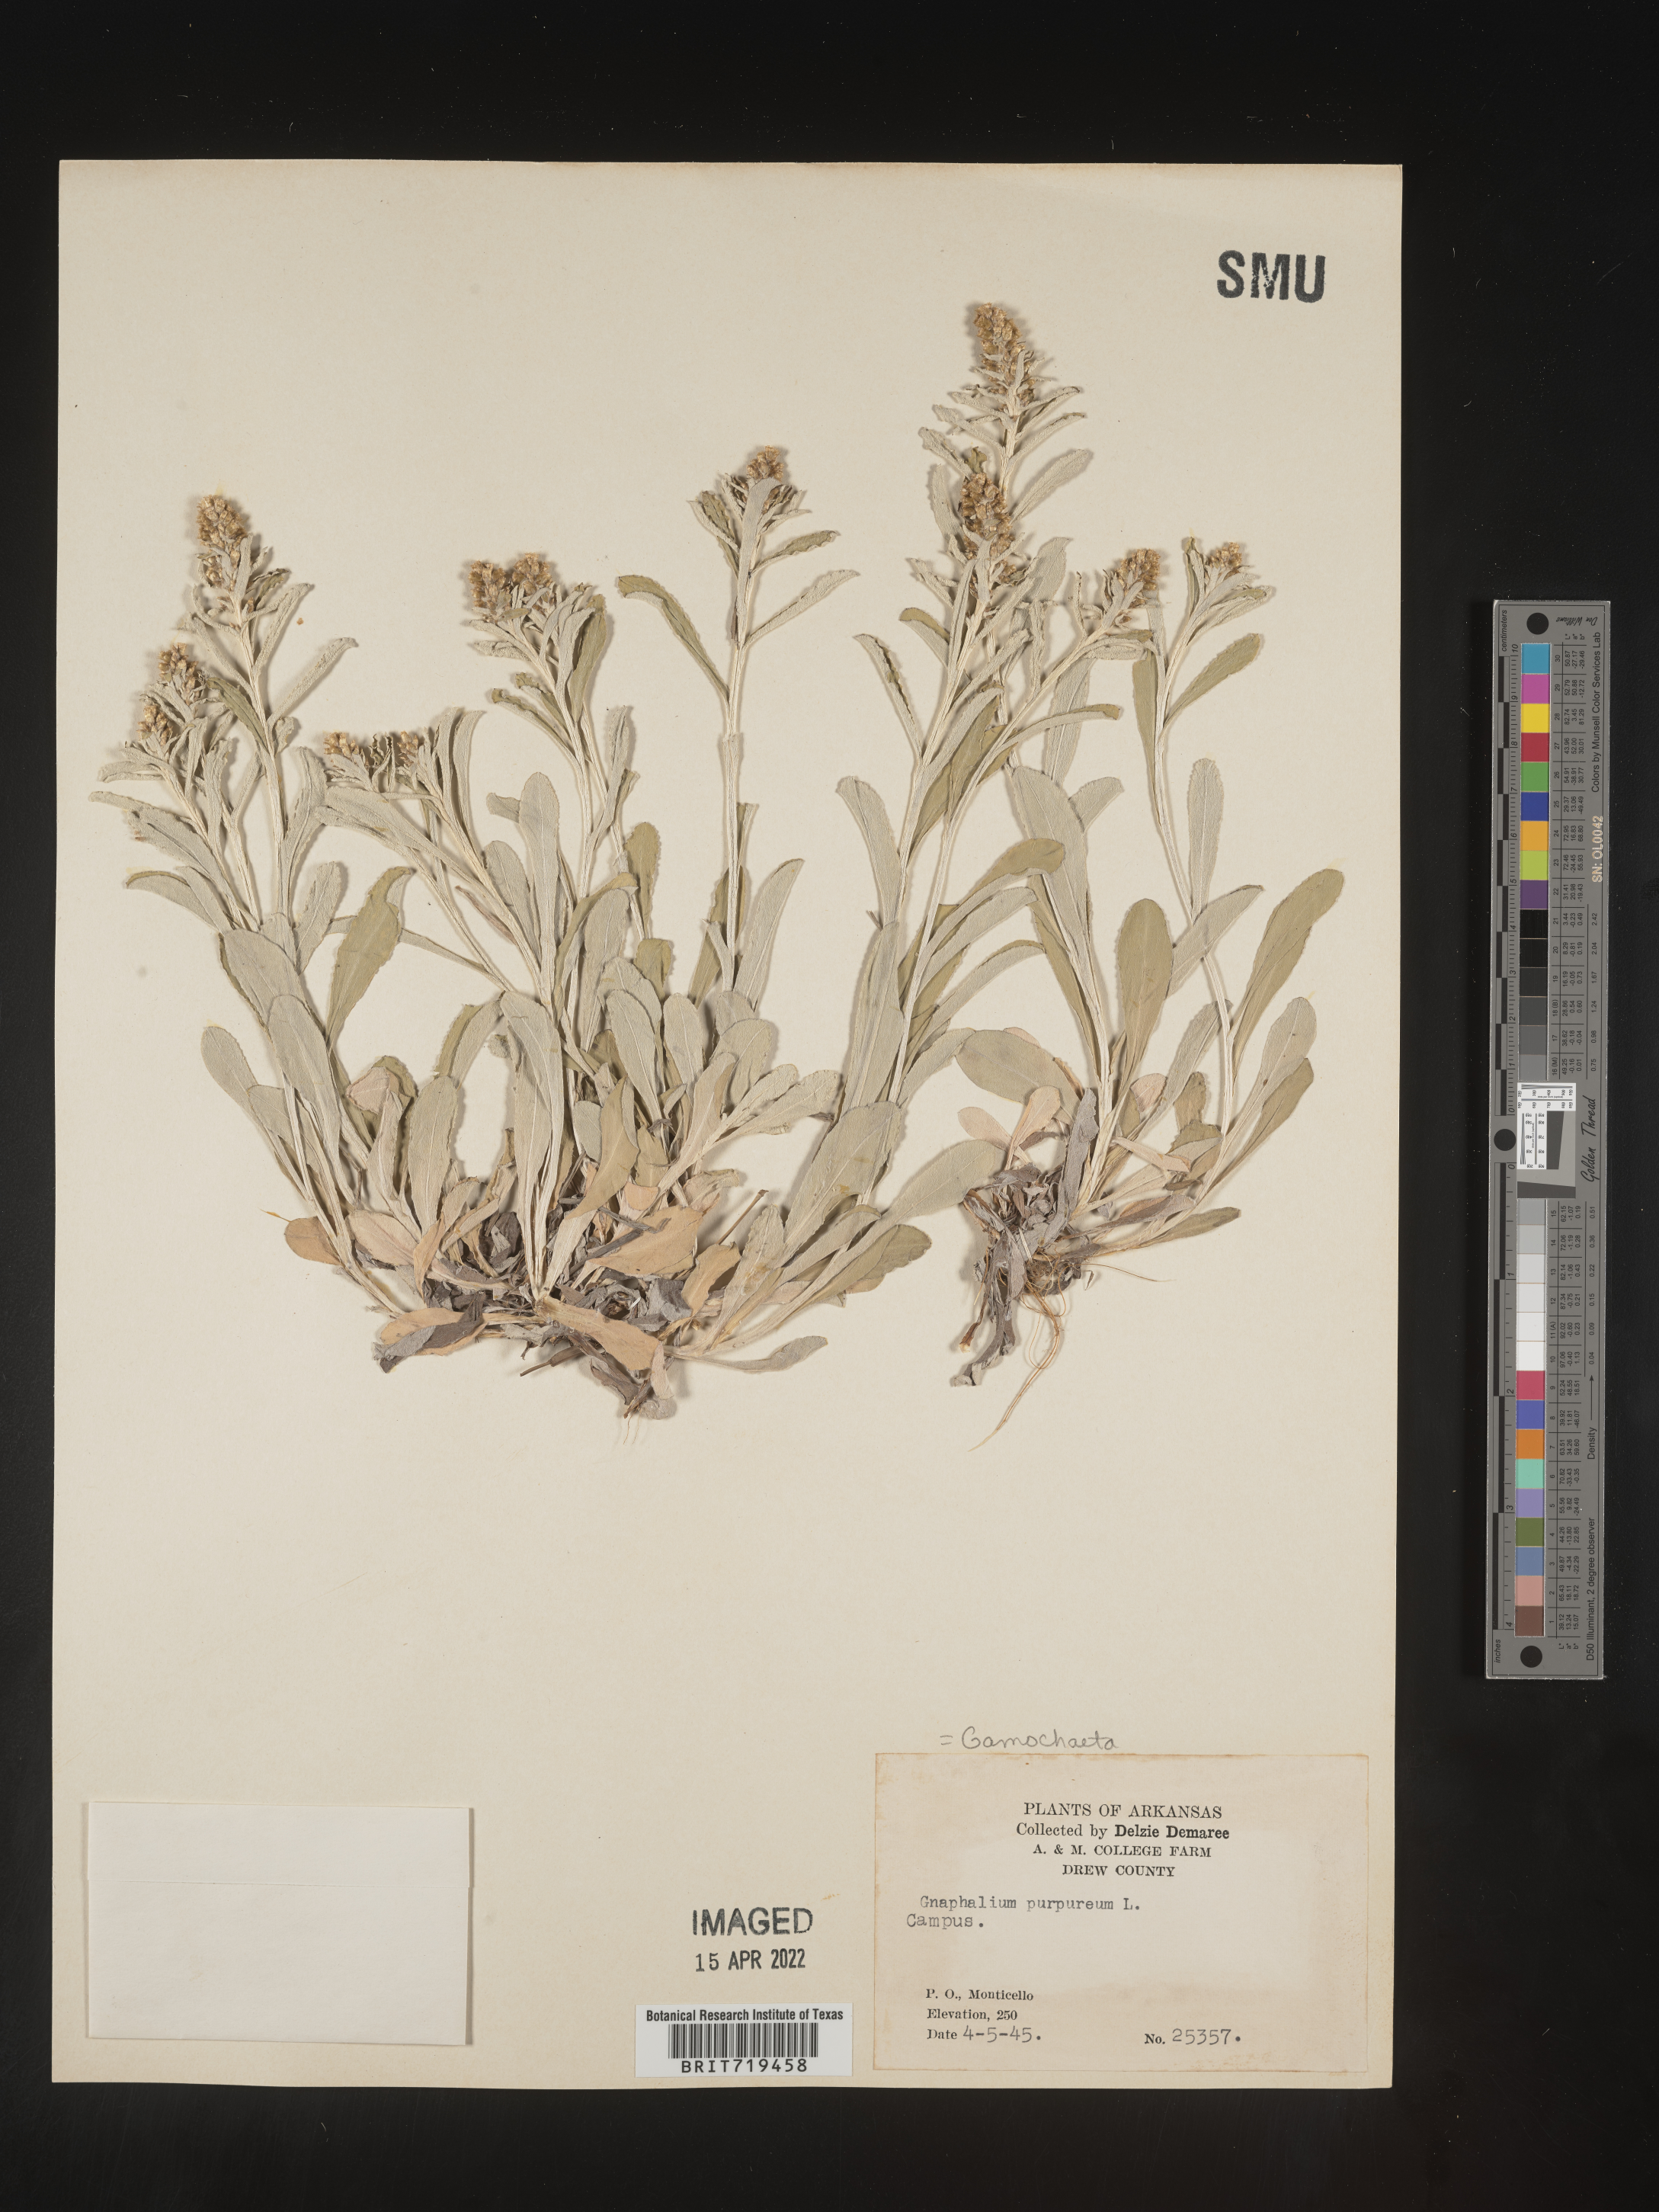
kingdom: Plantae
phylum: Tracheophyta
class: Magnoliopsida
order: Asterales
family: Asteraceae
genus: Gamochaeta
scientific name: Gamochaeta argyrinea
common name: Silvery cudweed
